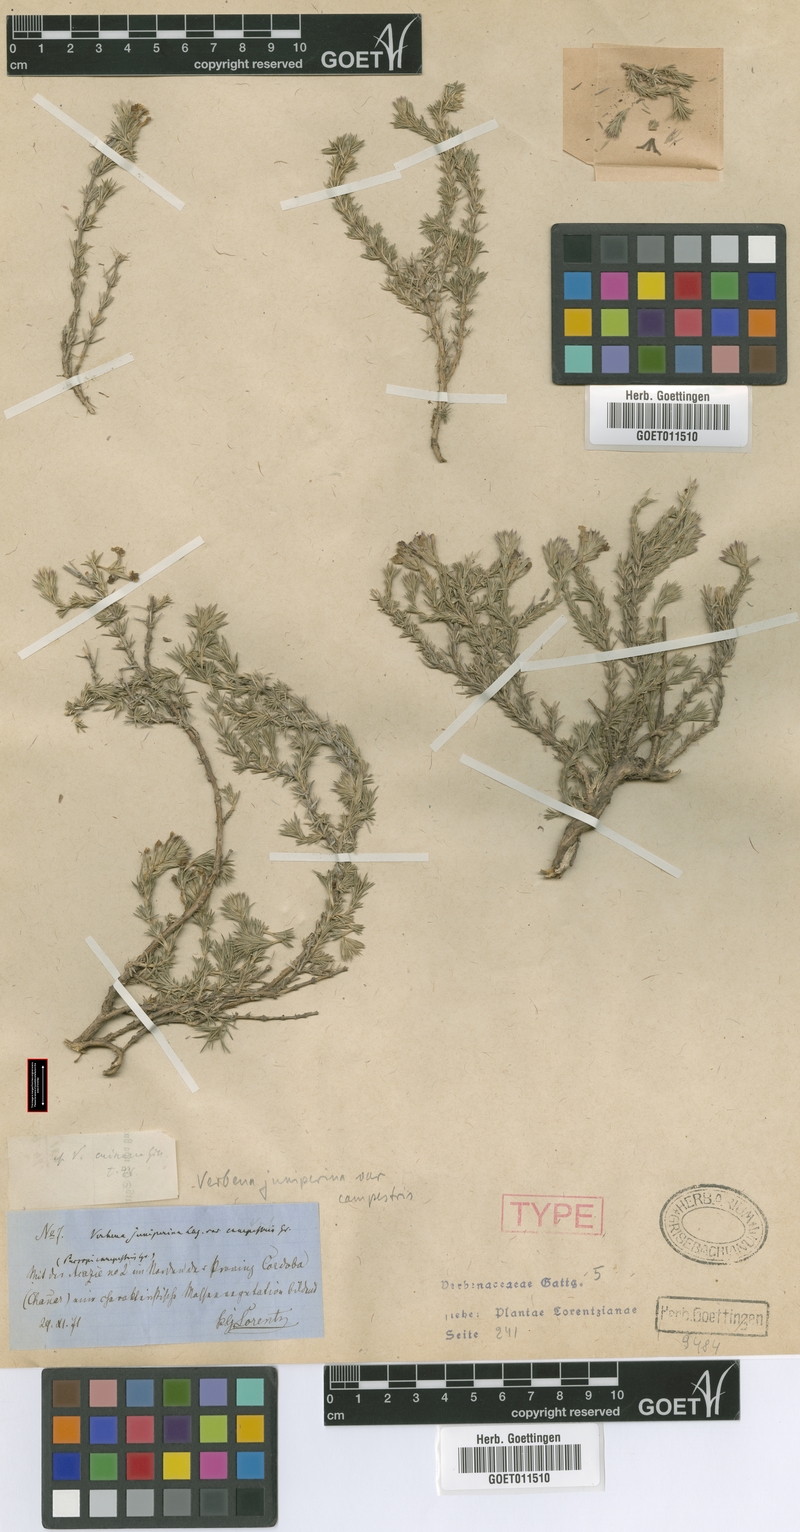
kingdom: Plantae
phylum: Tracheophyta
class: Magnoliopsida
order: Lamiales
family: Verbenaceae
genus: Junellia
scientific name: Junellia bisulcata
